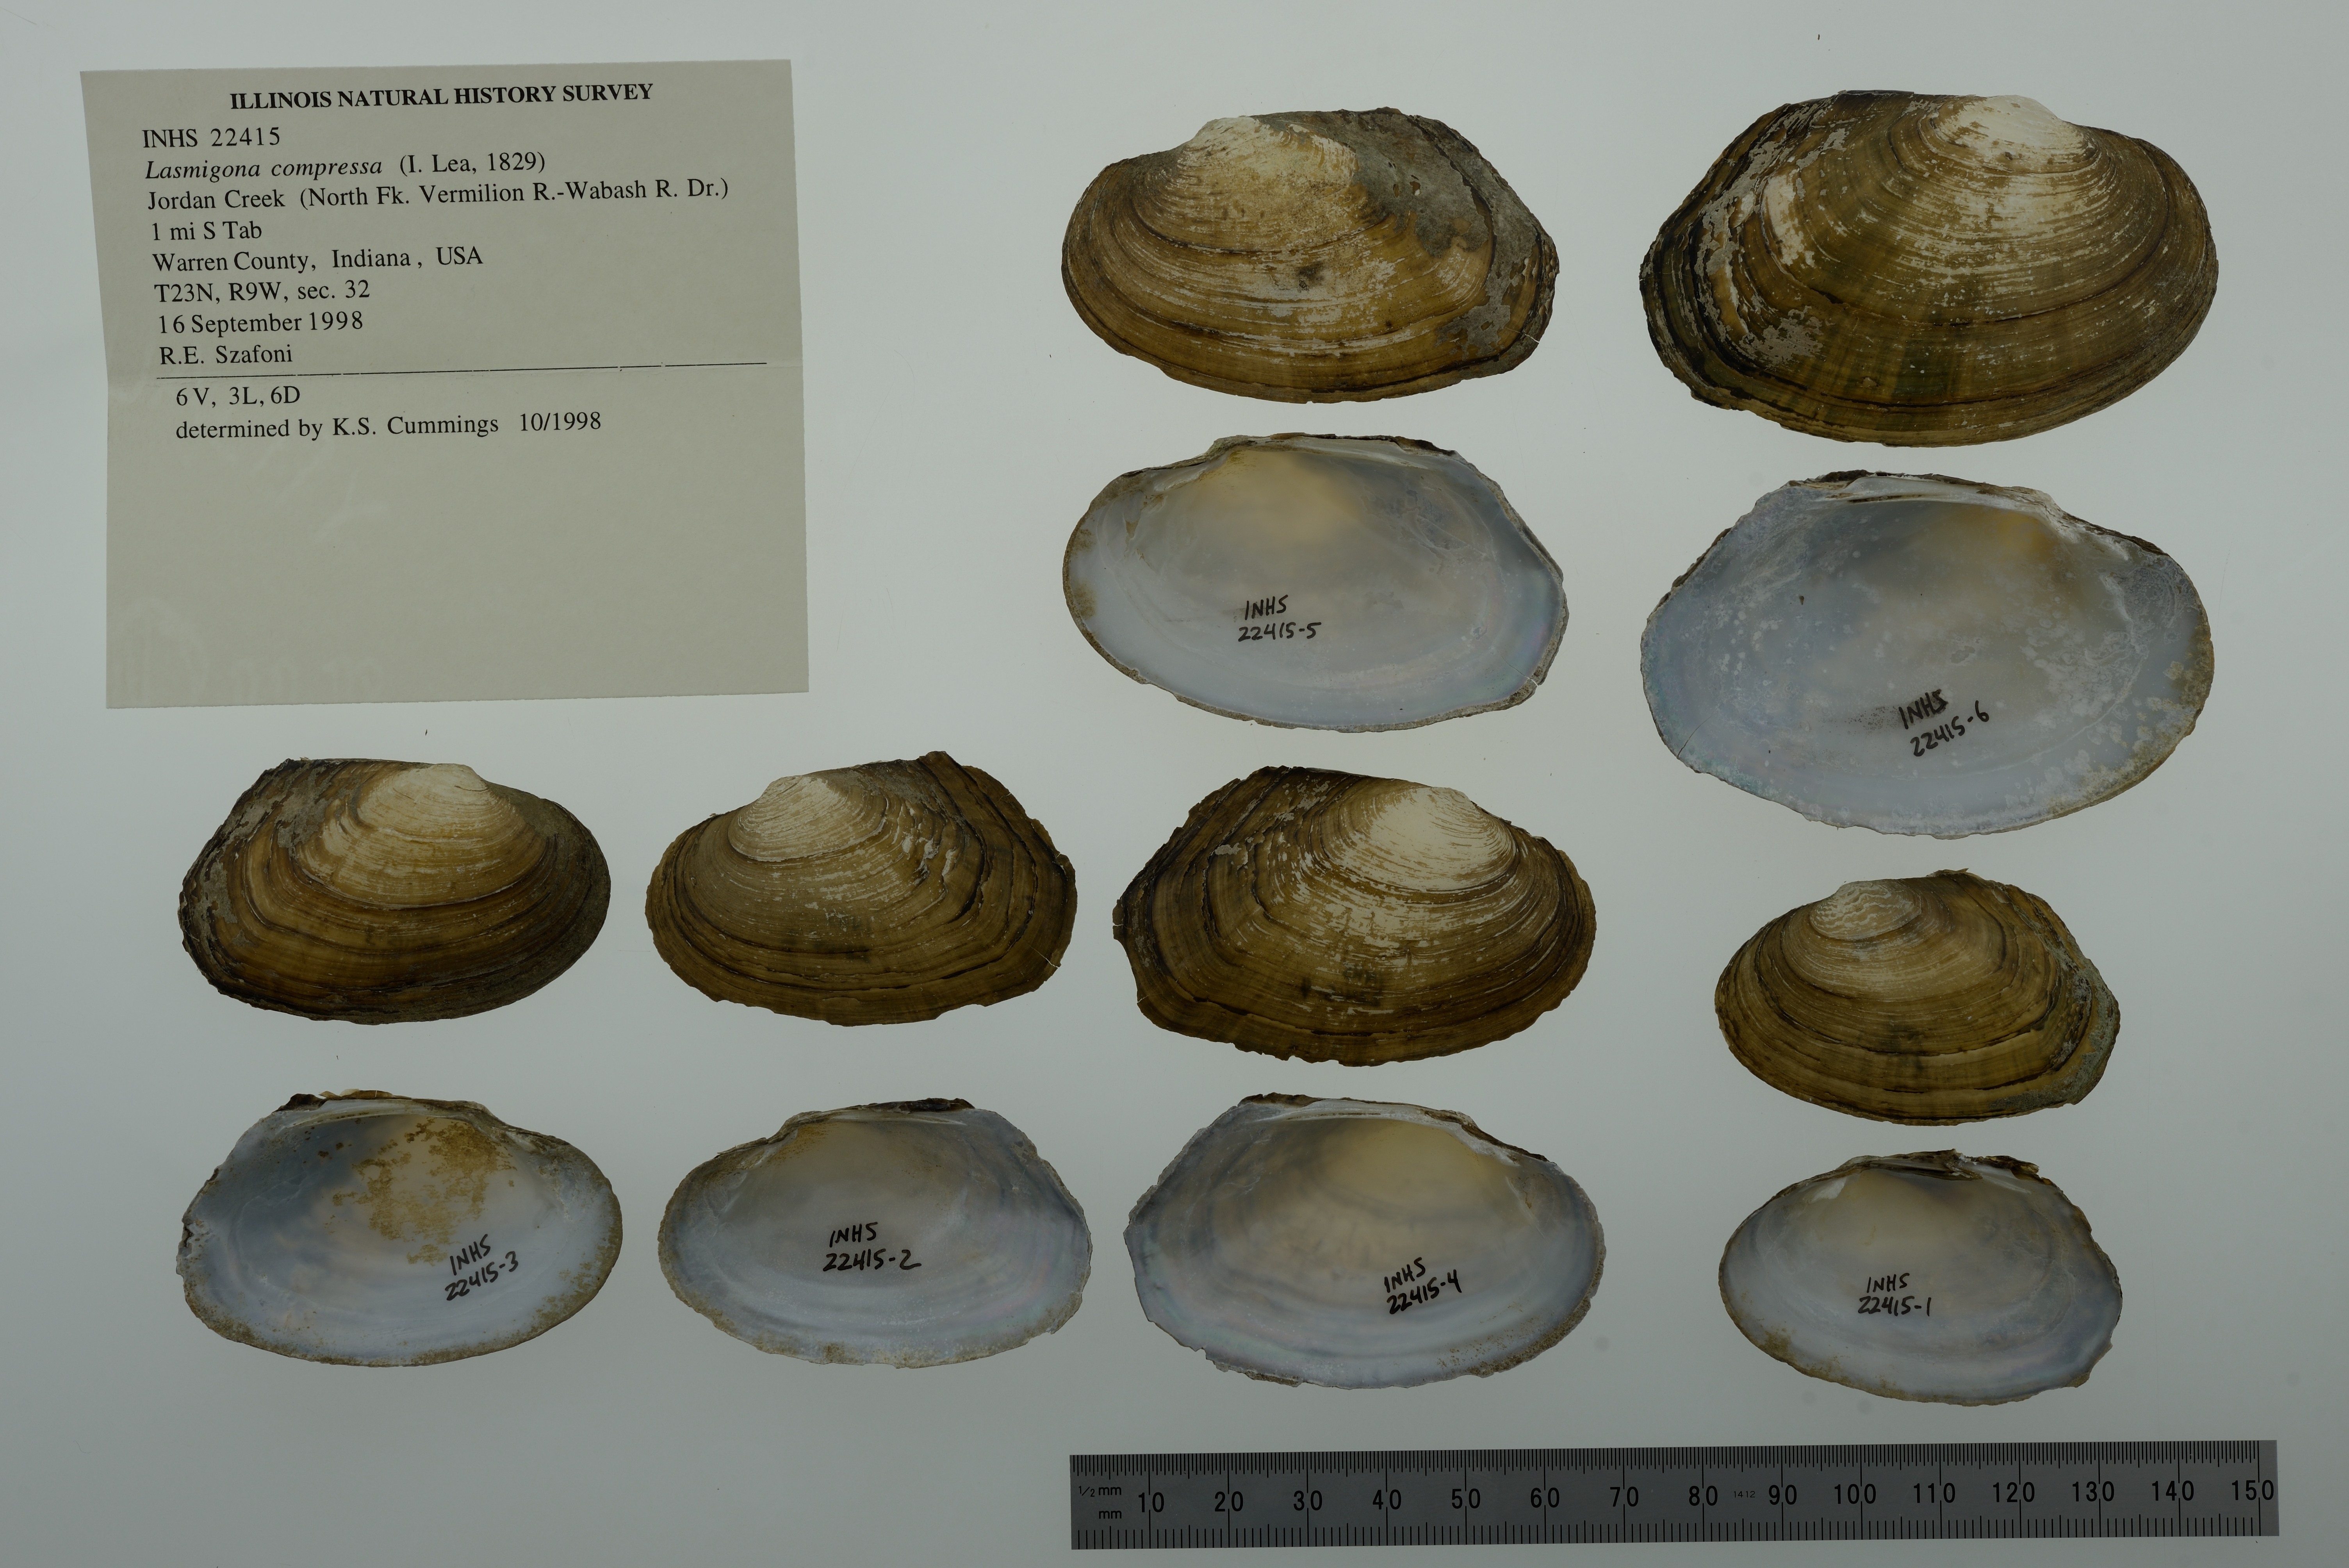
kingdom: Animalia
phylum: Mollusca
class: Bivalvia
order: Unionida
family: Unionidae
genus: Lasmigona
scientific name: Lasmigona compressa
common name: Creek heelsplitter
